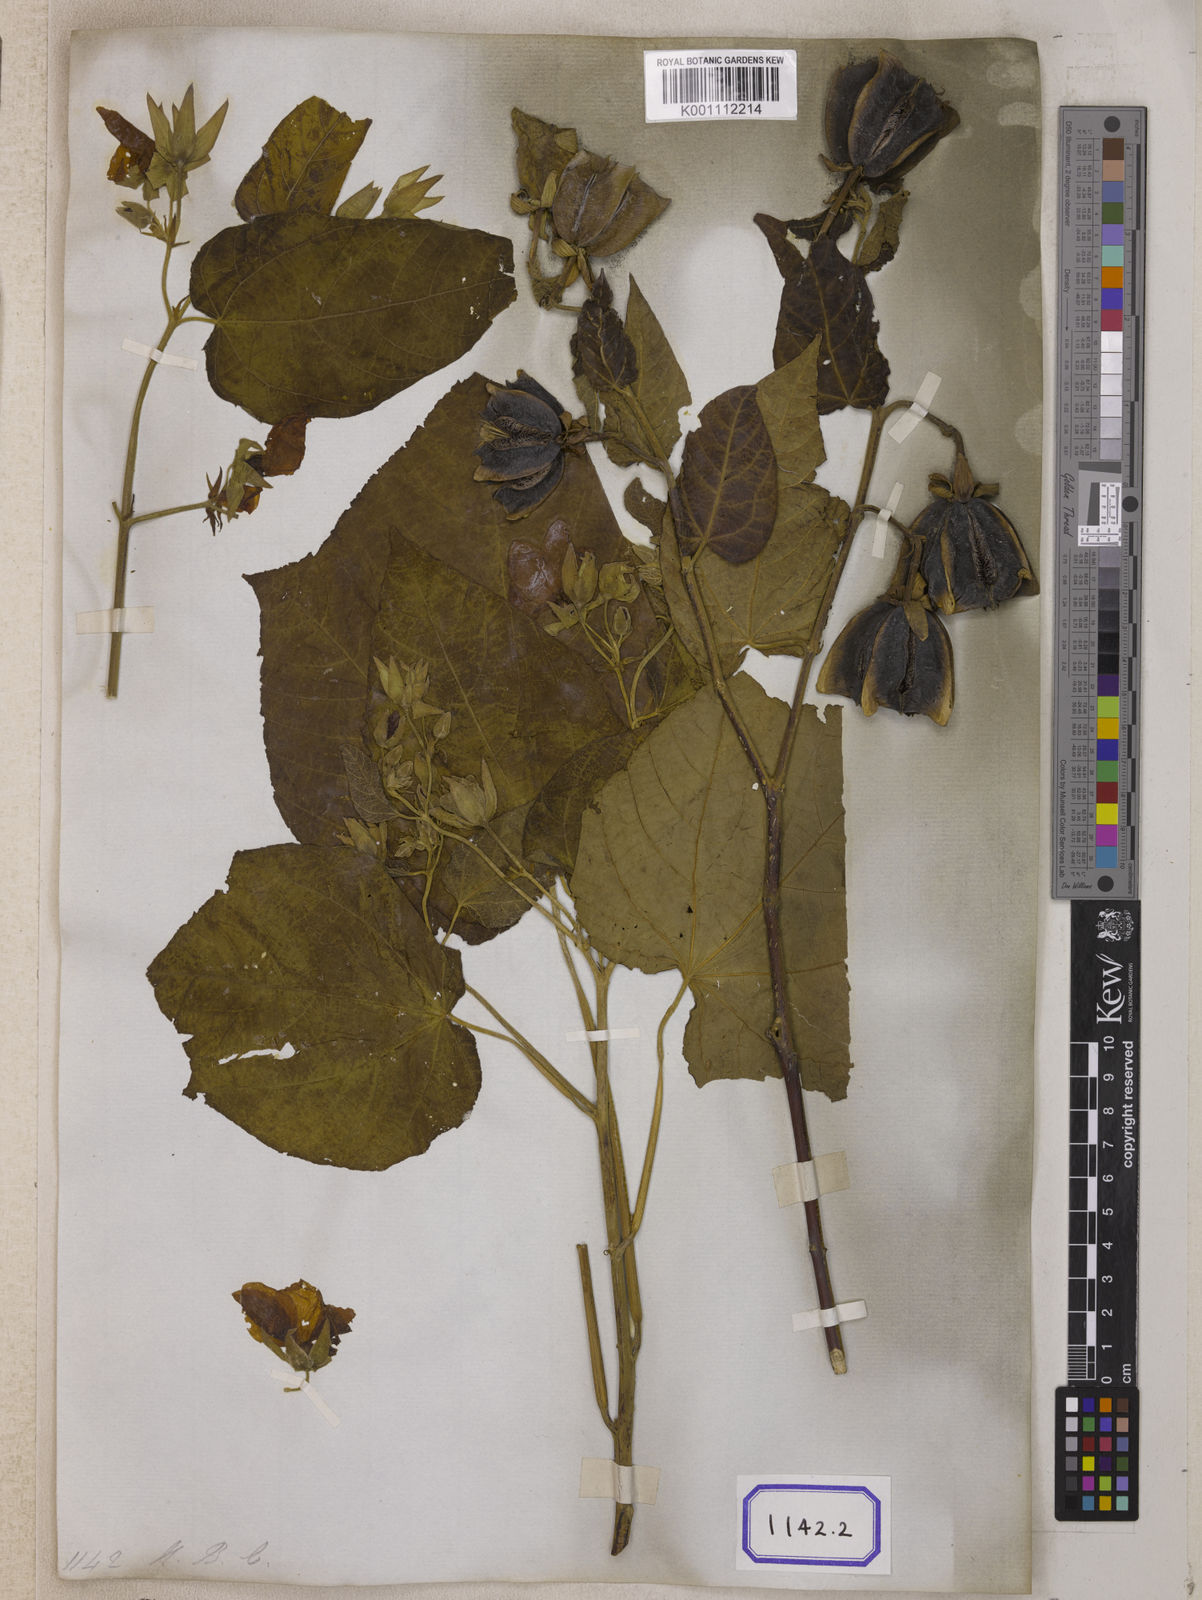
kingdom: Plantae
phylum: Tracheophyta
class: Magnoliopsida
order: Malvales
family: Malvaceae
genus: Abroma
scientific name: Abroma augustum
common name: Devil's-cotton
